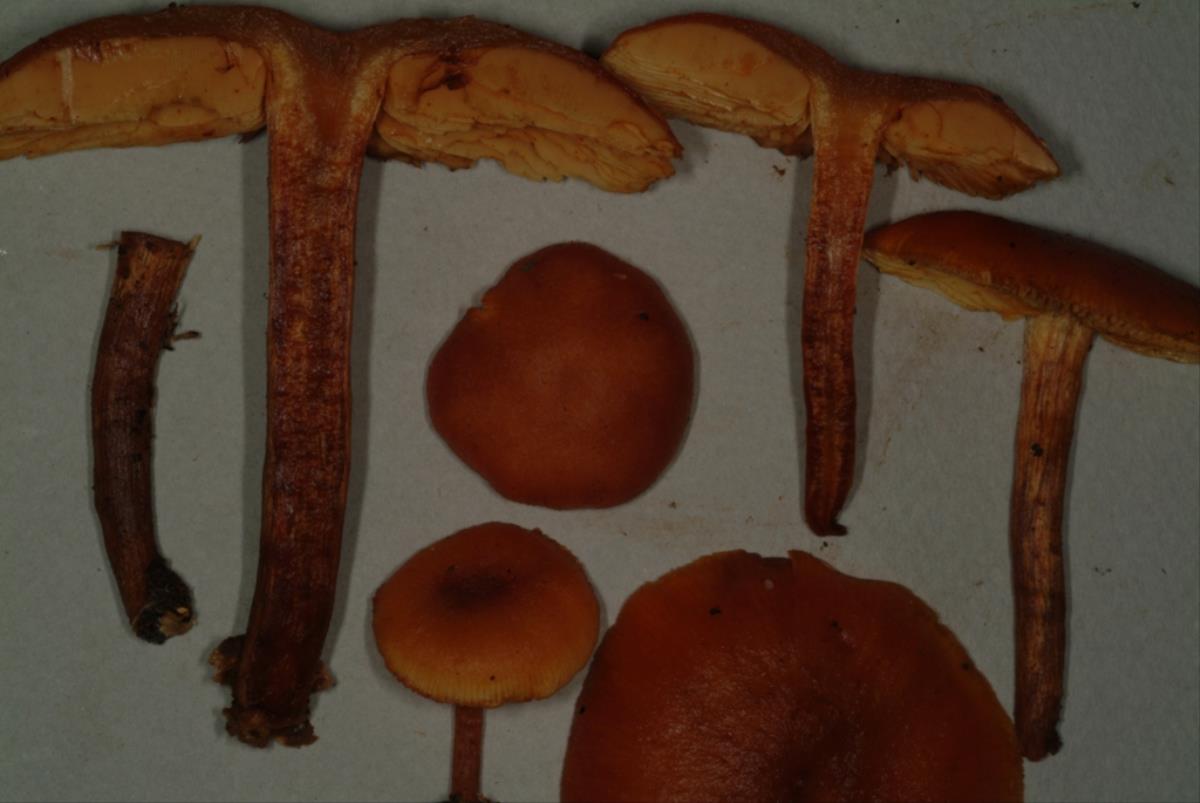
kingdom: Fungi
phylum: Basidiomycota
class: Agaricomycetes
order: Agaricales
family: Hymenogastraceae
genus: Gymnopilus
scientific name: Gymnopilus liquiritiae
